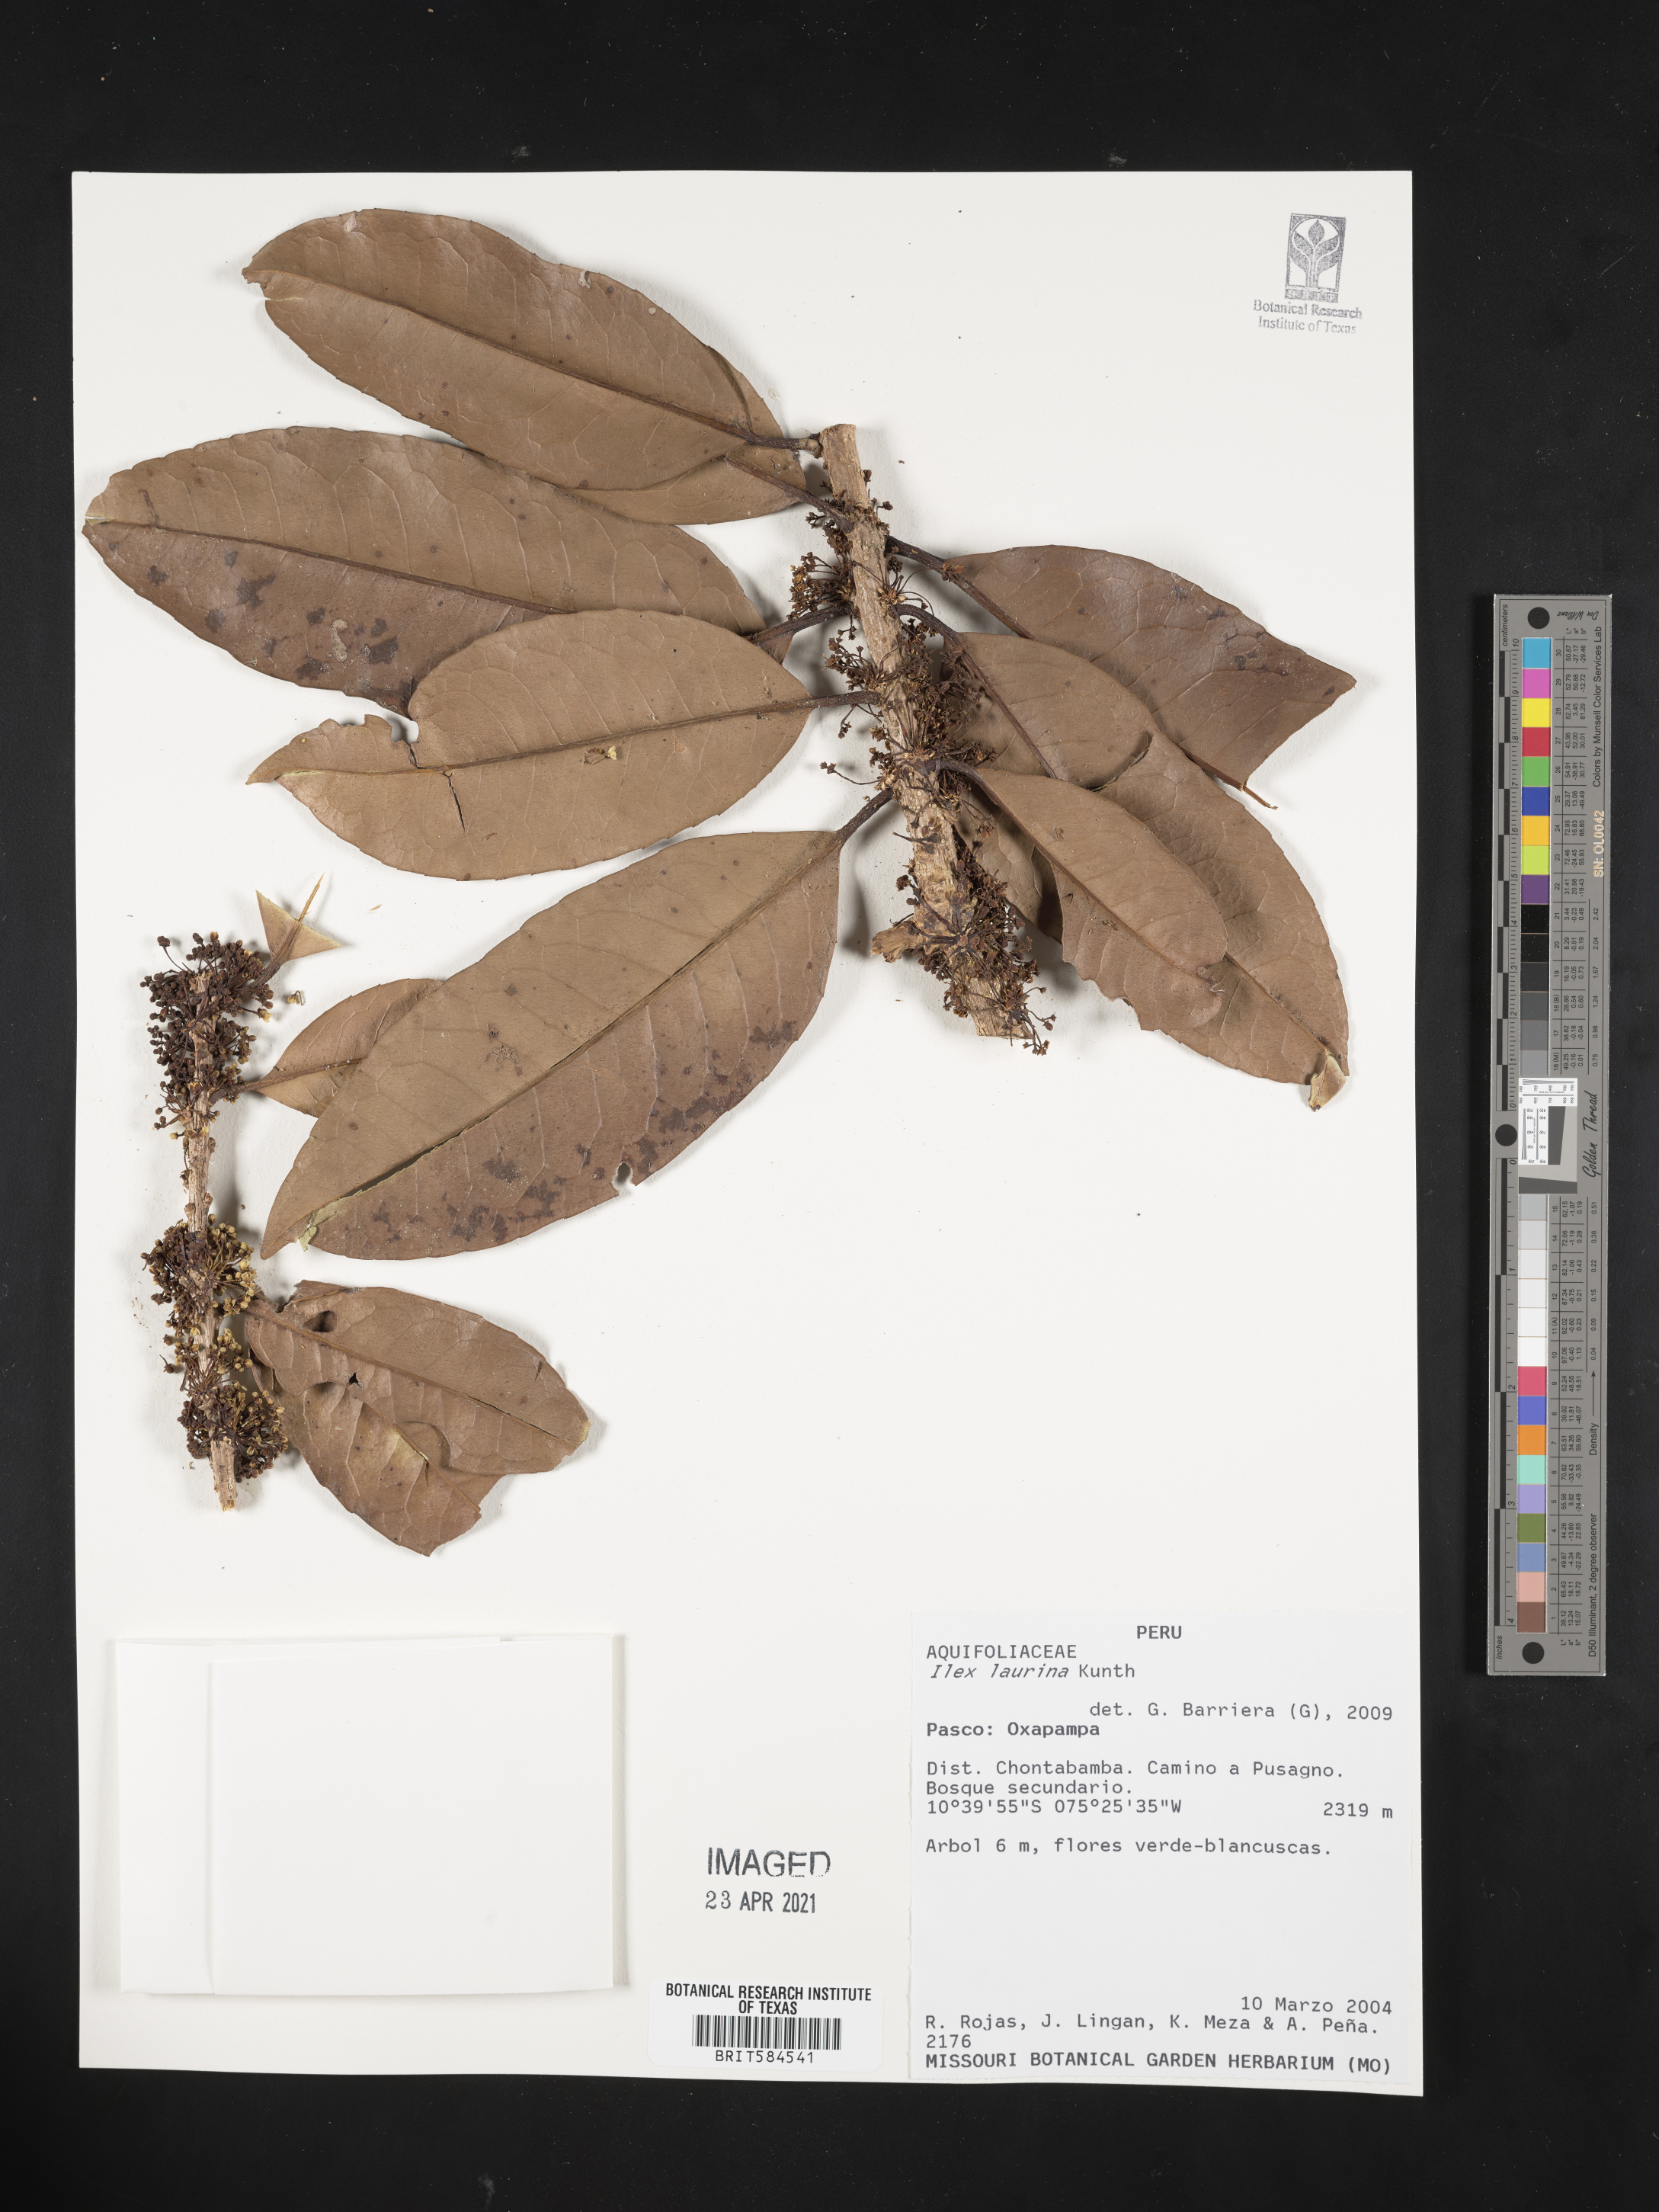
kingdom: Plantae
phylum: Tracheophyta
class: Magnoliopsida
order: Aquifoliales
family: Aquifoliaceae
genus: Ilex
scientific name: Ilex laurina
